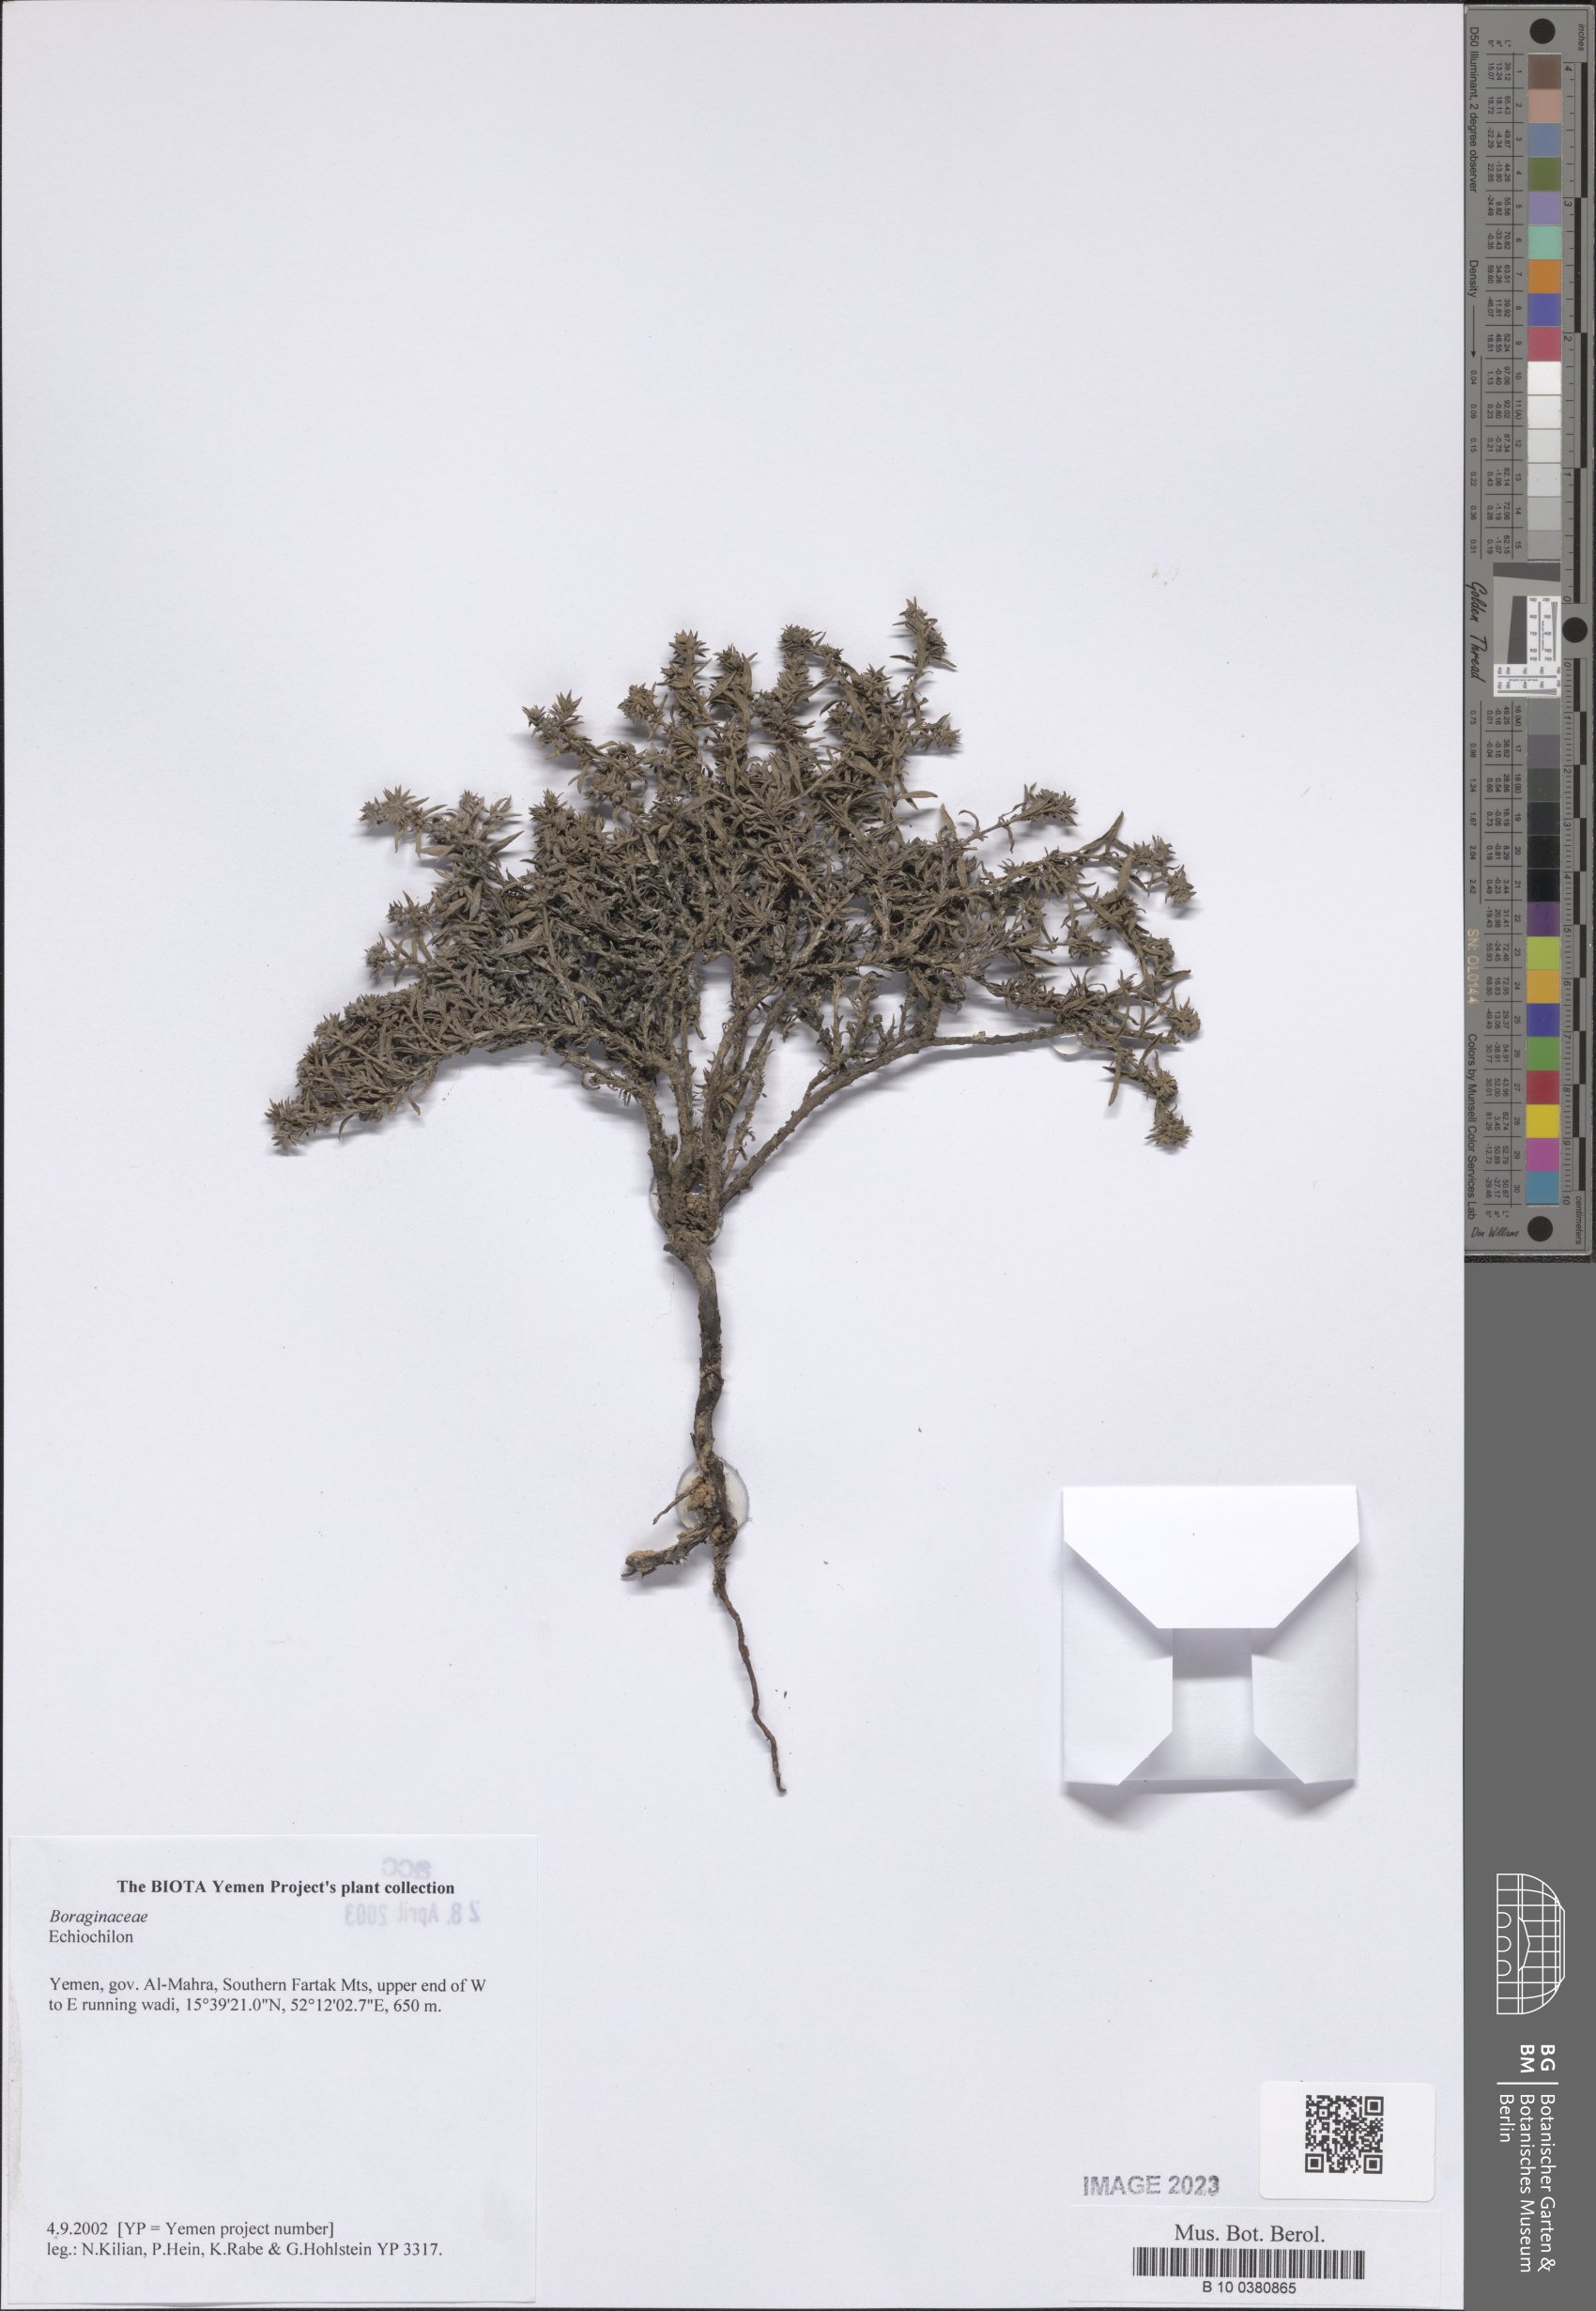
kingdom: Plantae
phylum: Tracheophyta
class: Magnoliopsida
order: Boraginales
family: Boraginaceae
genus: Echiochilon
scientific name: Echiochilon
